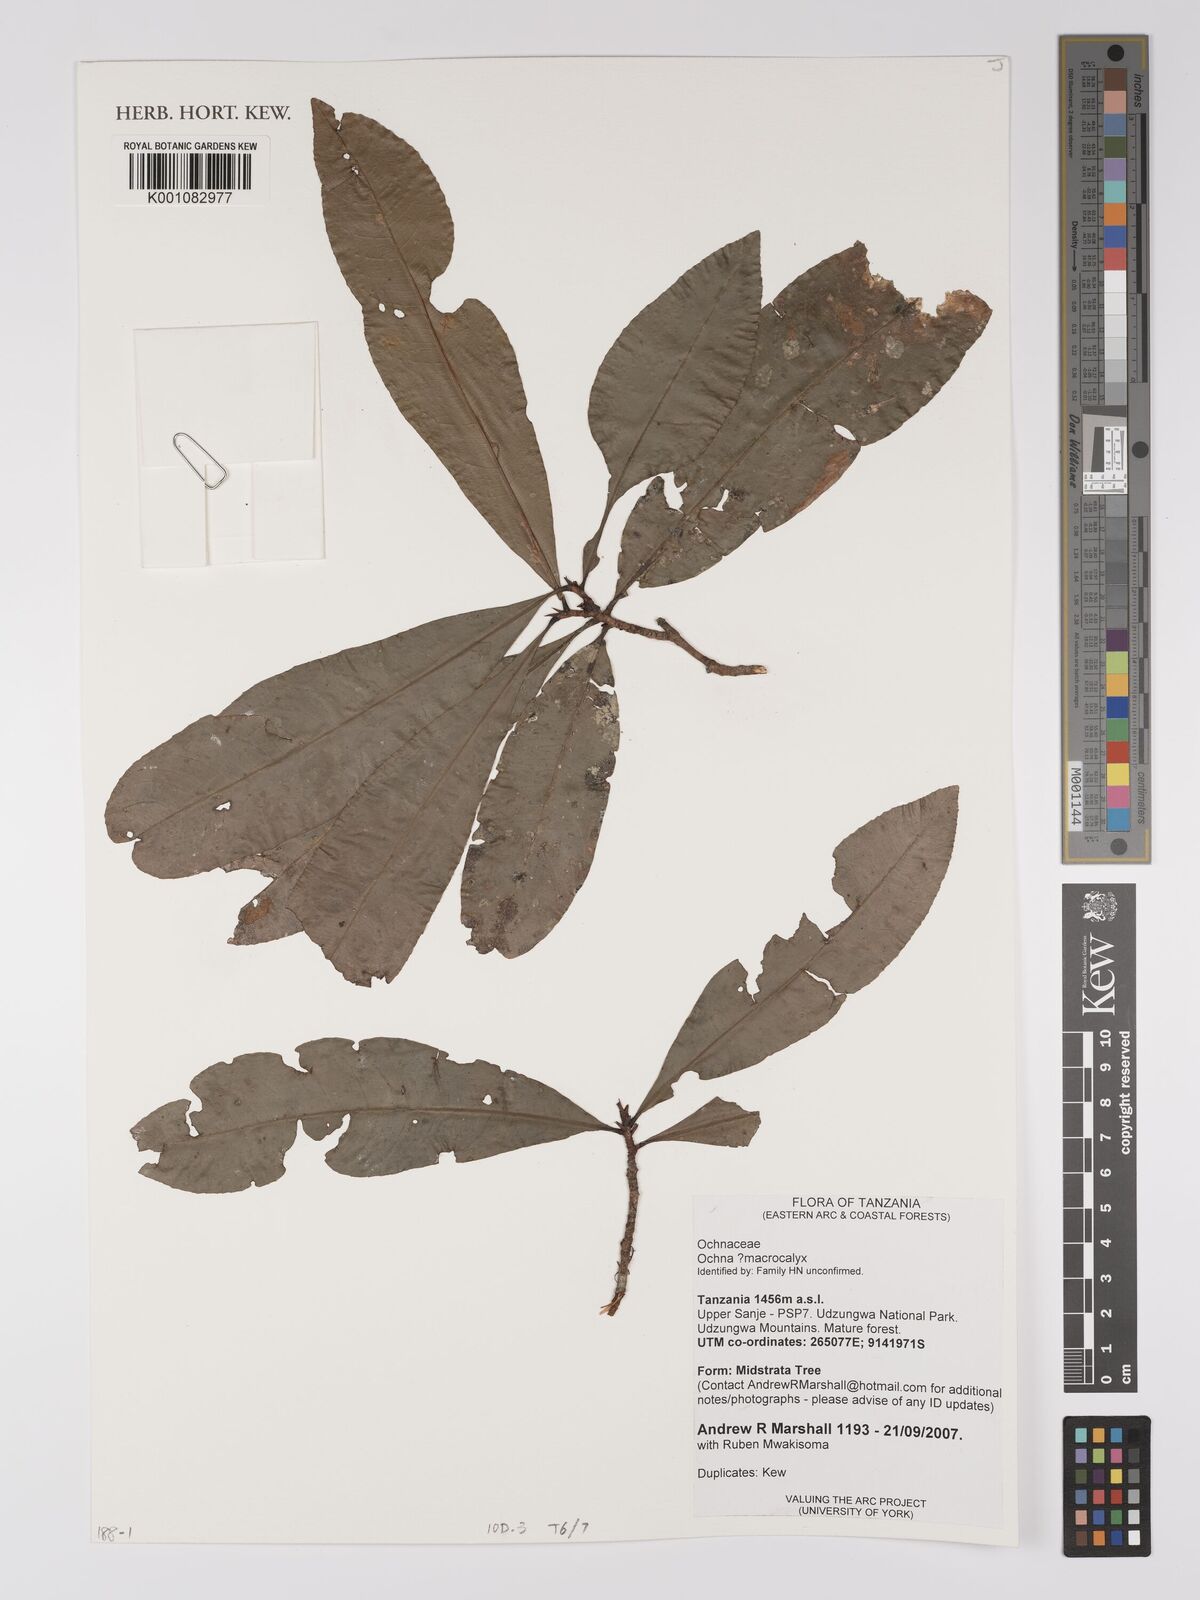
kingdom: Plantae
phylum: Tracheophyta
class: Magnoliopsida
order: Malpighiales
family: Ochnaceae
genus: Ochna
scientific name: Ochna macrocalyx
